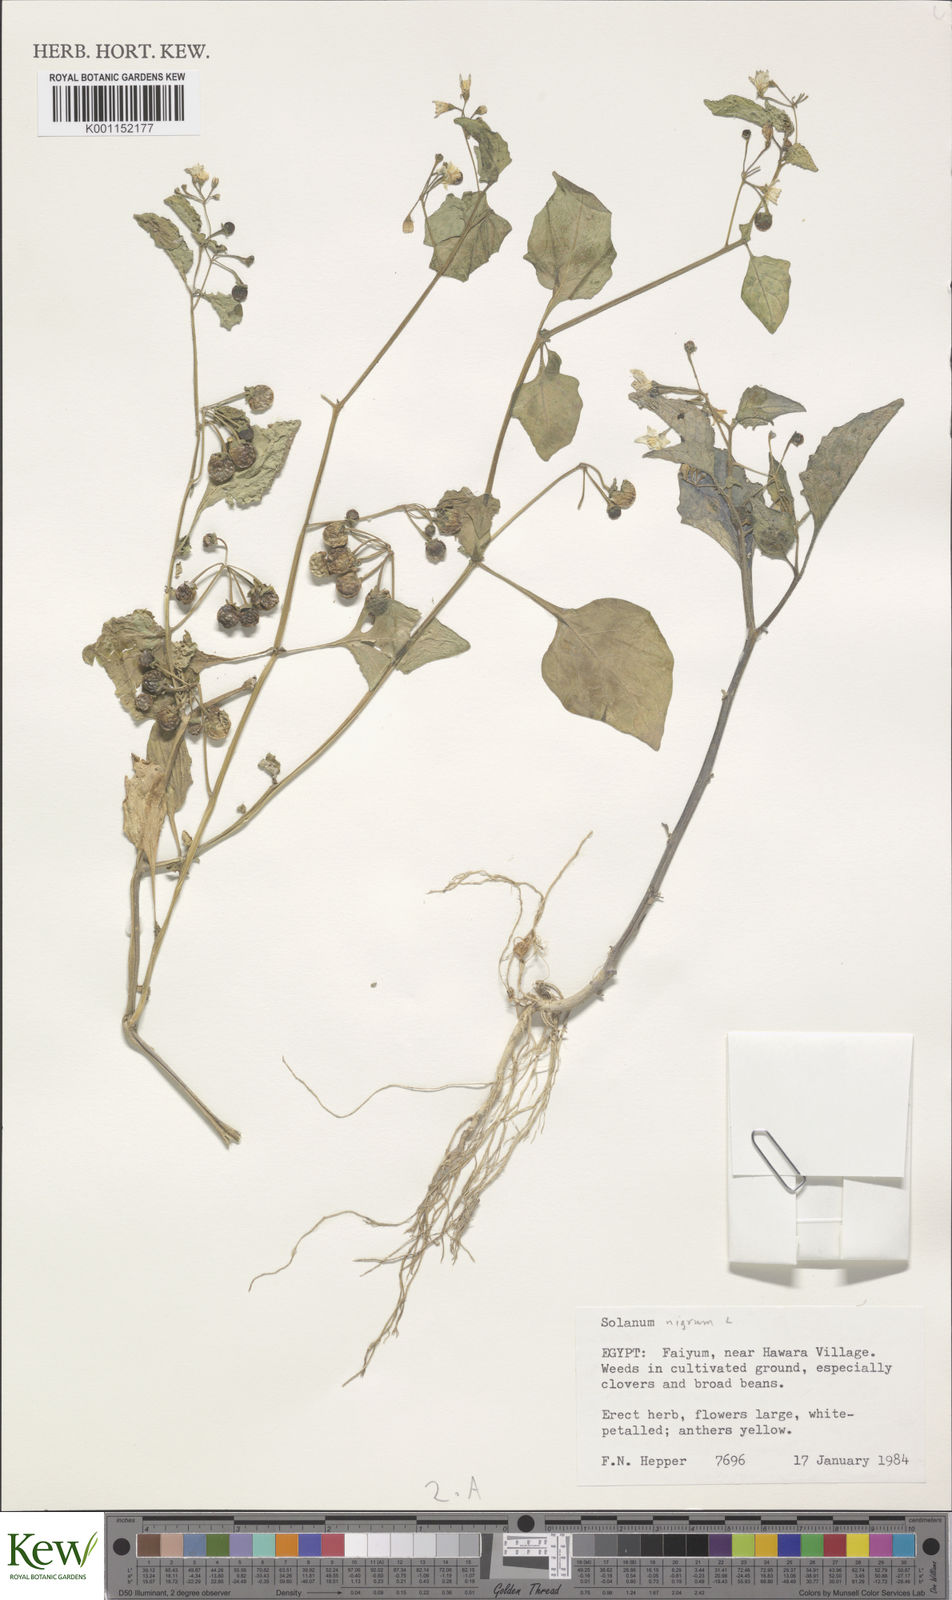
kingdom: Plantae
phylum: Tracheophyta
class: Magnoliopsida
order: Solanales
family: Solanaceae
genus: Solanum
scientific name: Solanum nigrum
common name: Black nightshade
